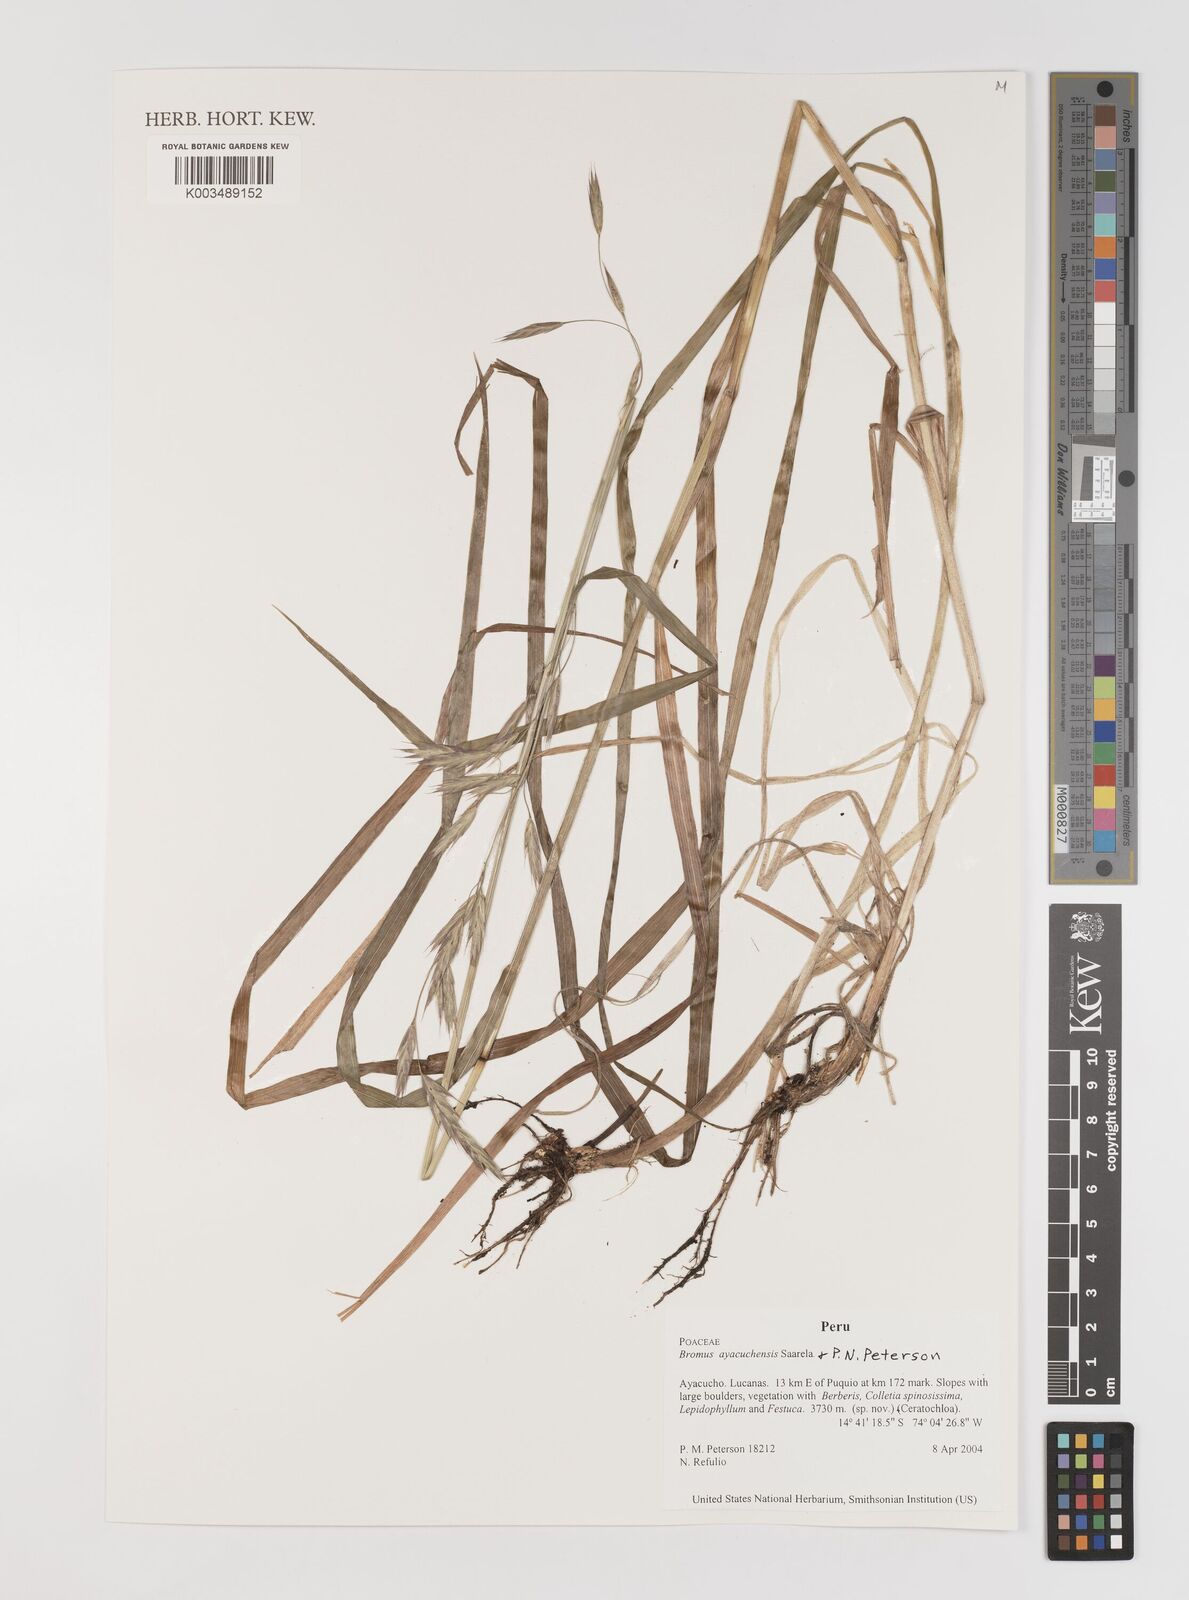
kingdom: Plantae
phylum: Tracheophyta
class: Liliopsida
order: Poales
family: Poaceae
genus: Bromus
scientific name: Bromus ayacuchensis
